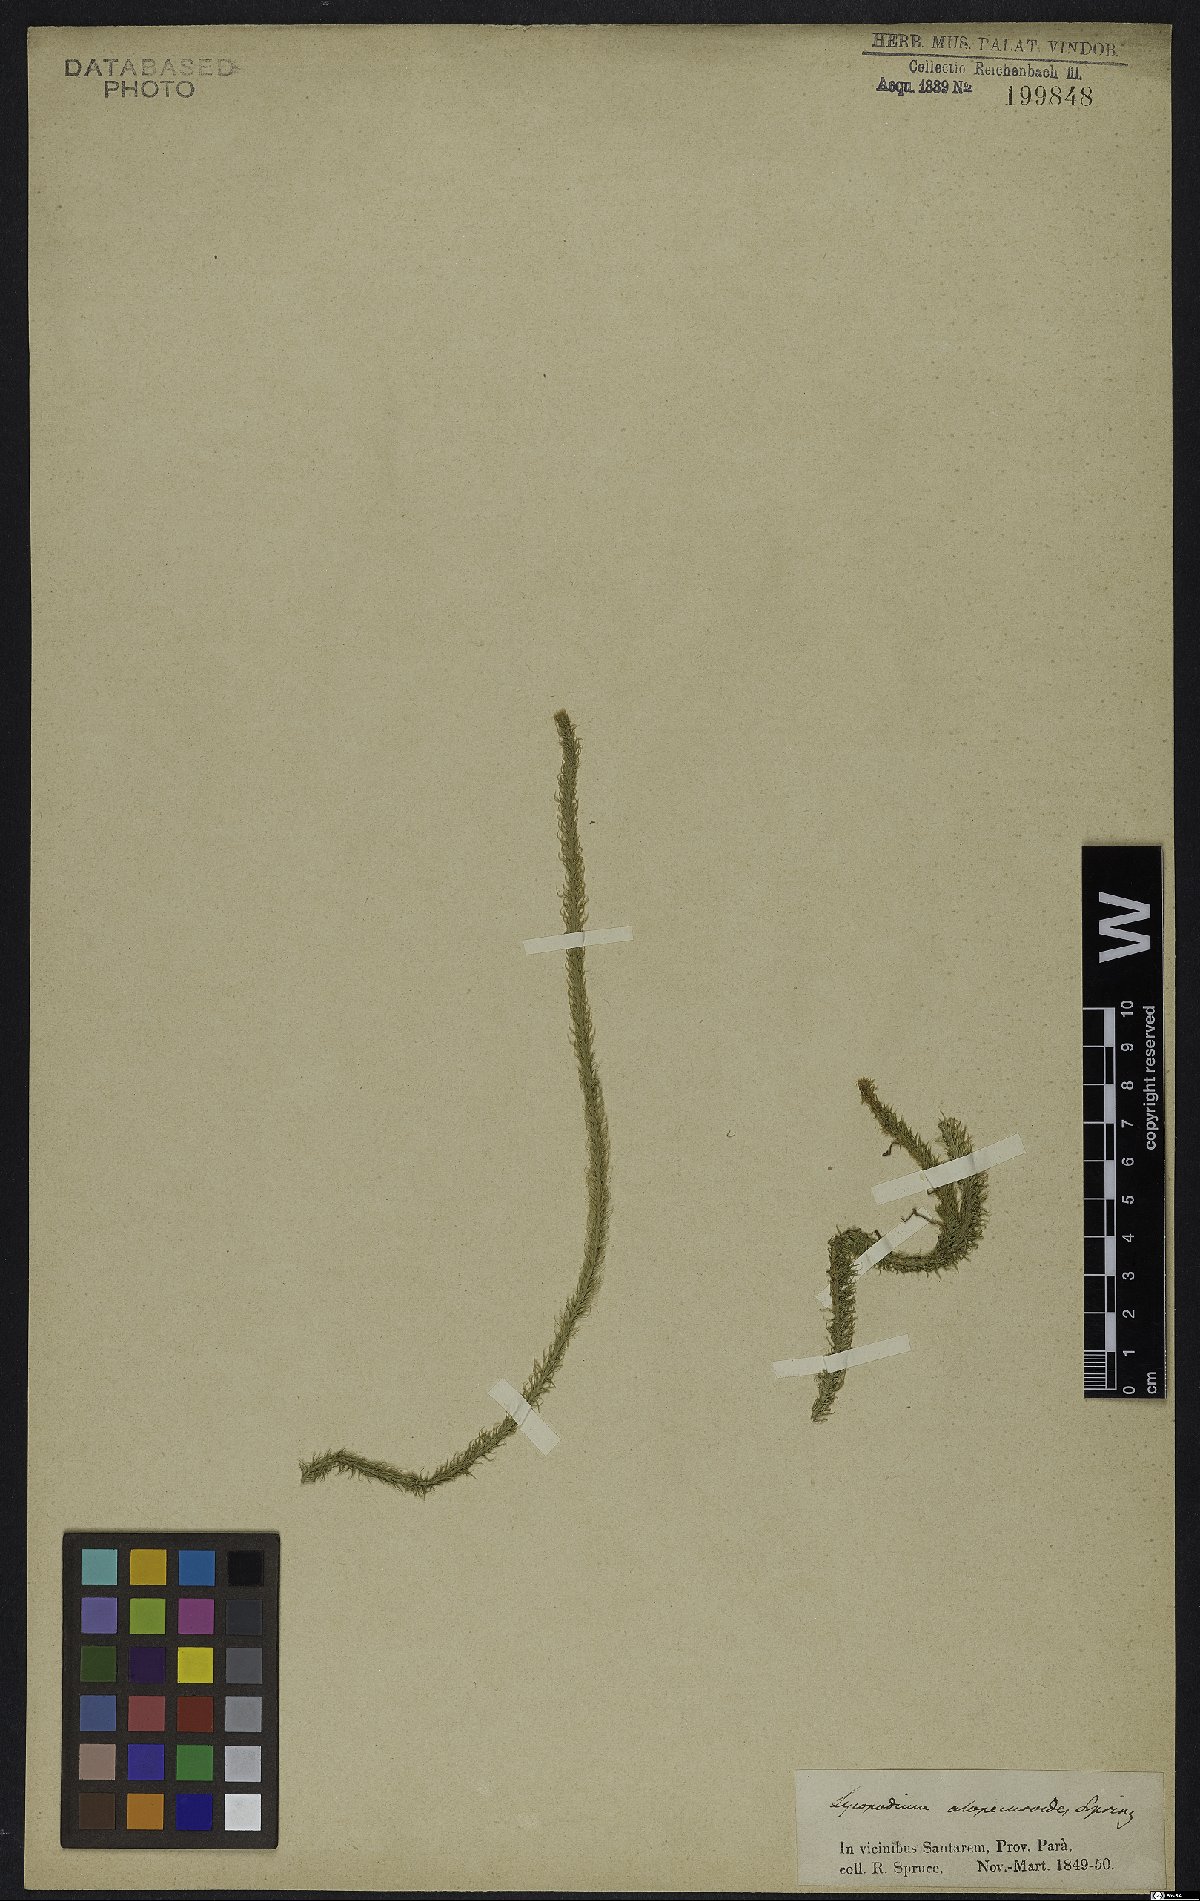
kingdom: Plantae
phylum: Tracheophyta
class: Lycopodiopsida
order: Lycopodiales
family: Lycopodiaceae
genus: Lycopodiella
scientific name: Lycopodiella alopecuroides
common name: Foxtail clubmoss
